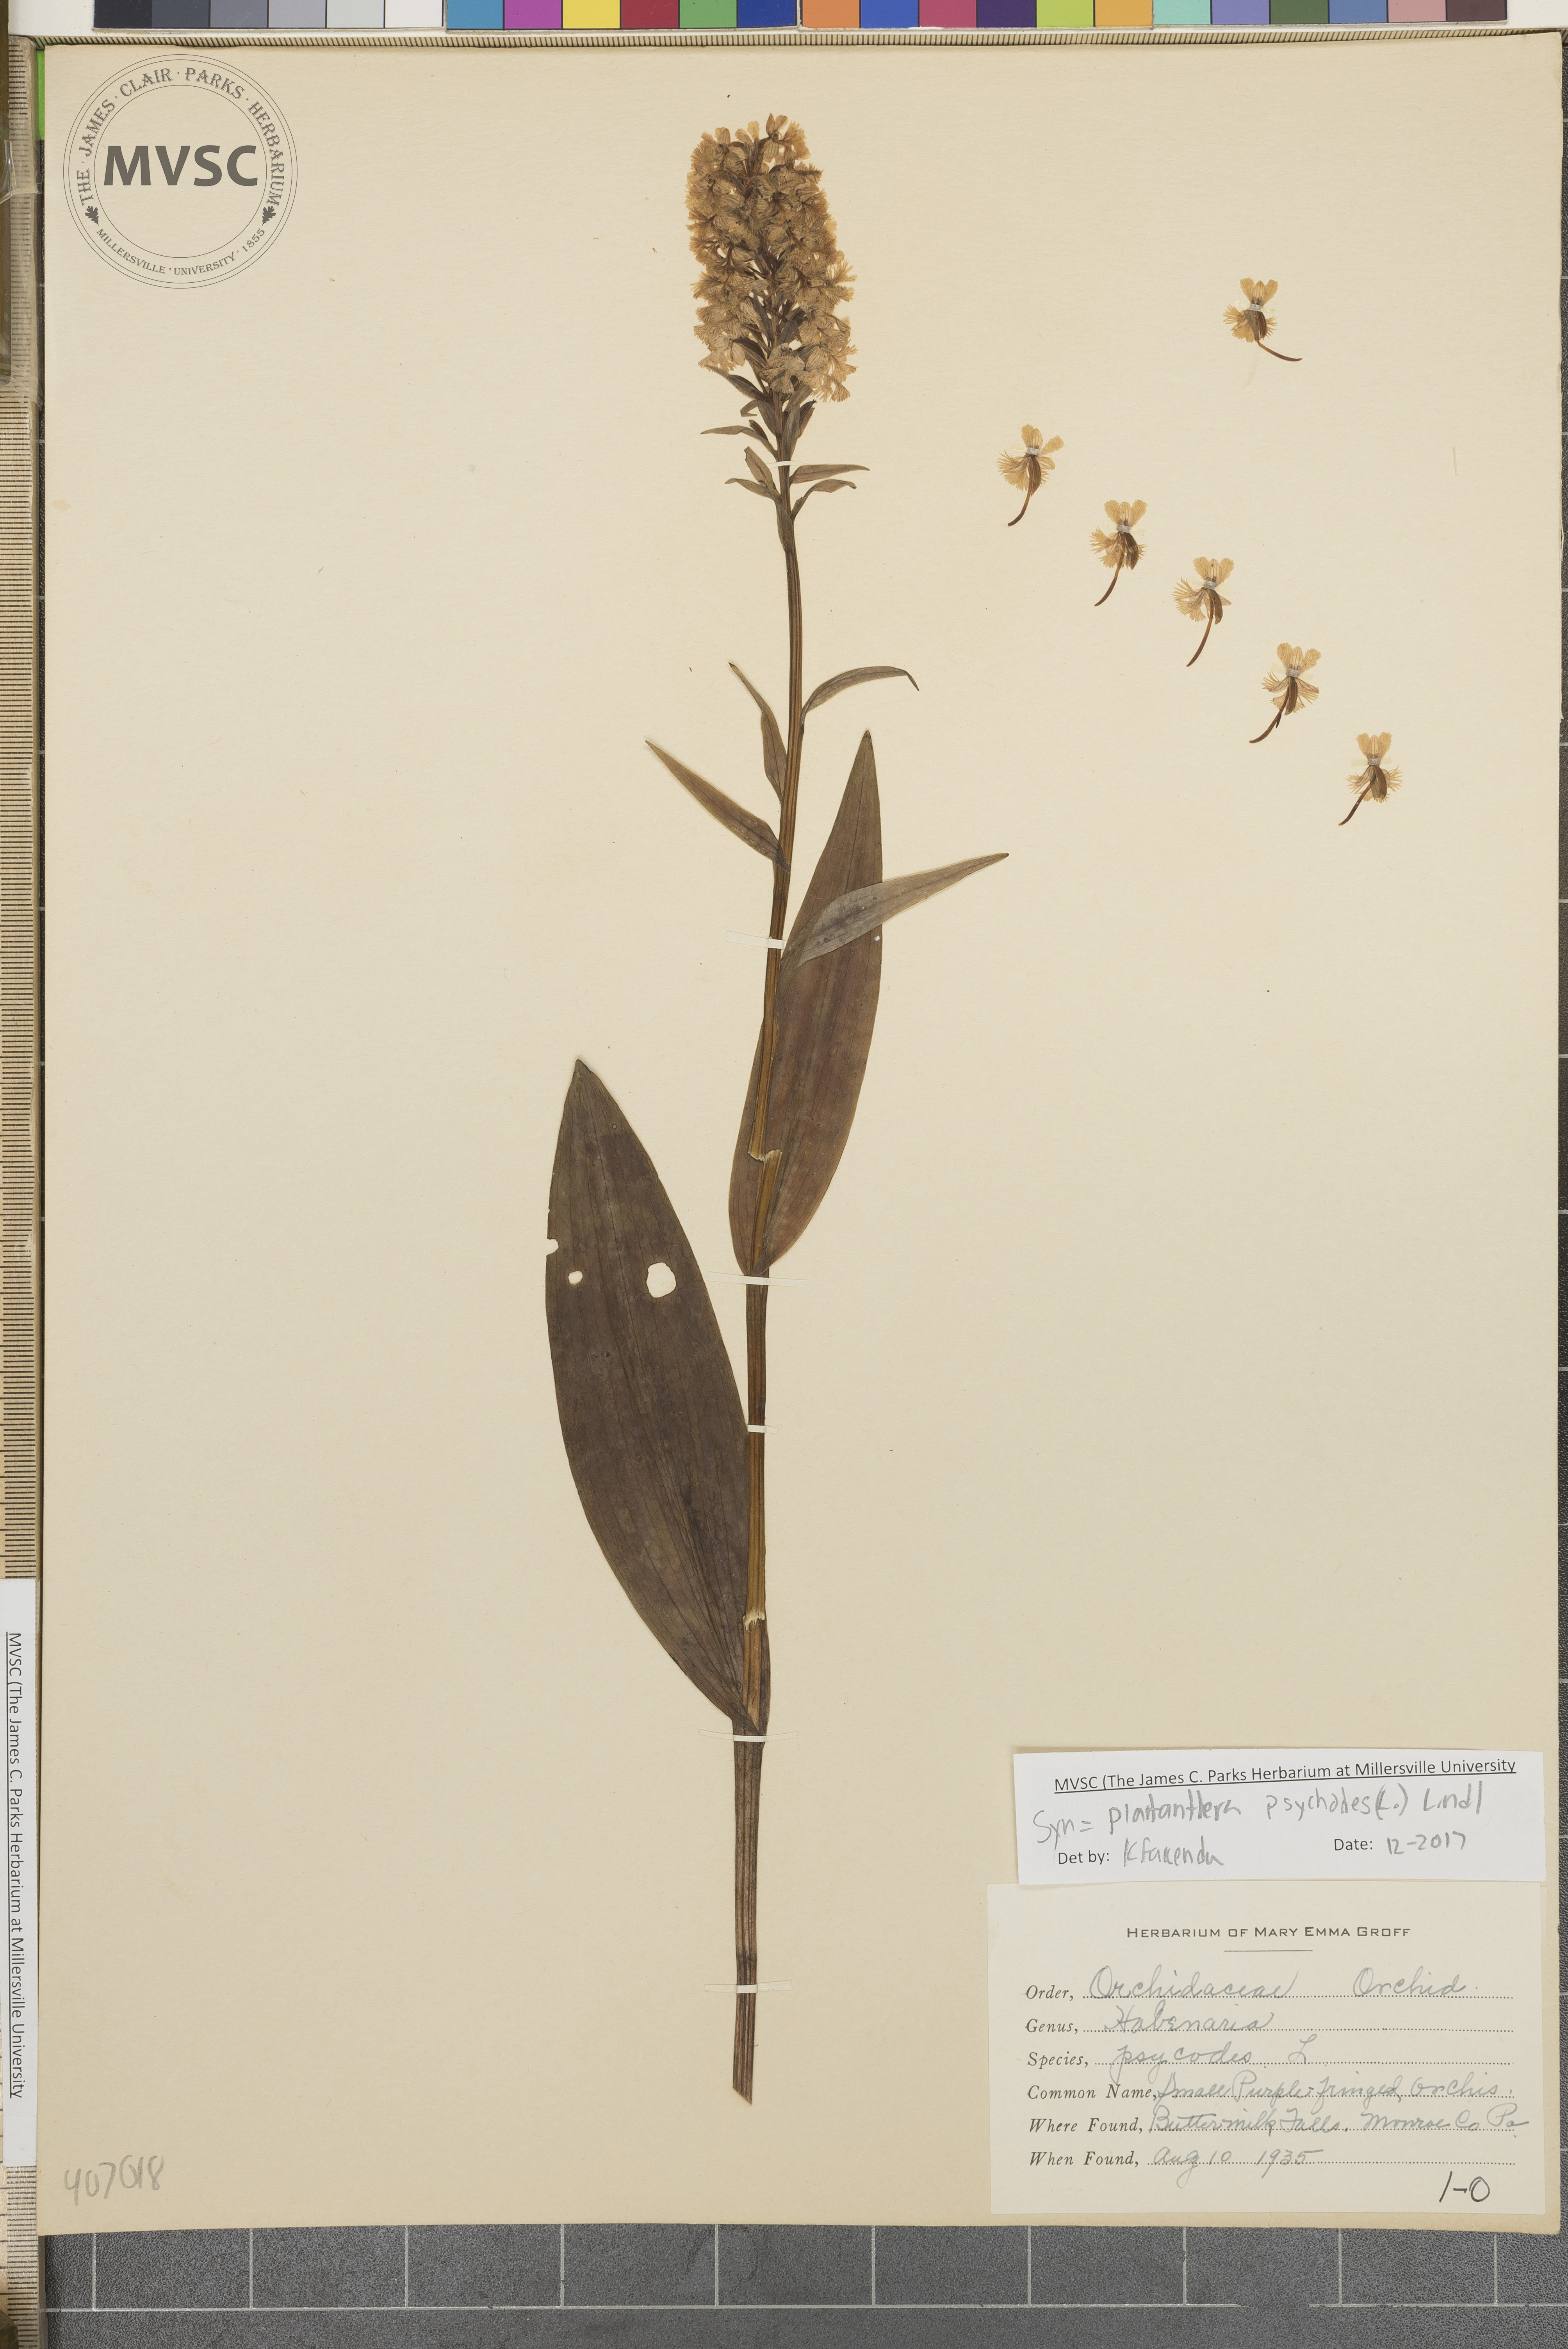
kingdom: Plantae
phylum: Tracheophyta
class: Liliopsida
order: Asparagales
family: Orchidaceae
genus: Platanthera
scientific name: Platanthera psycodes
